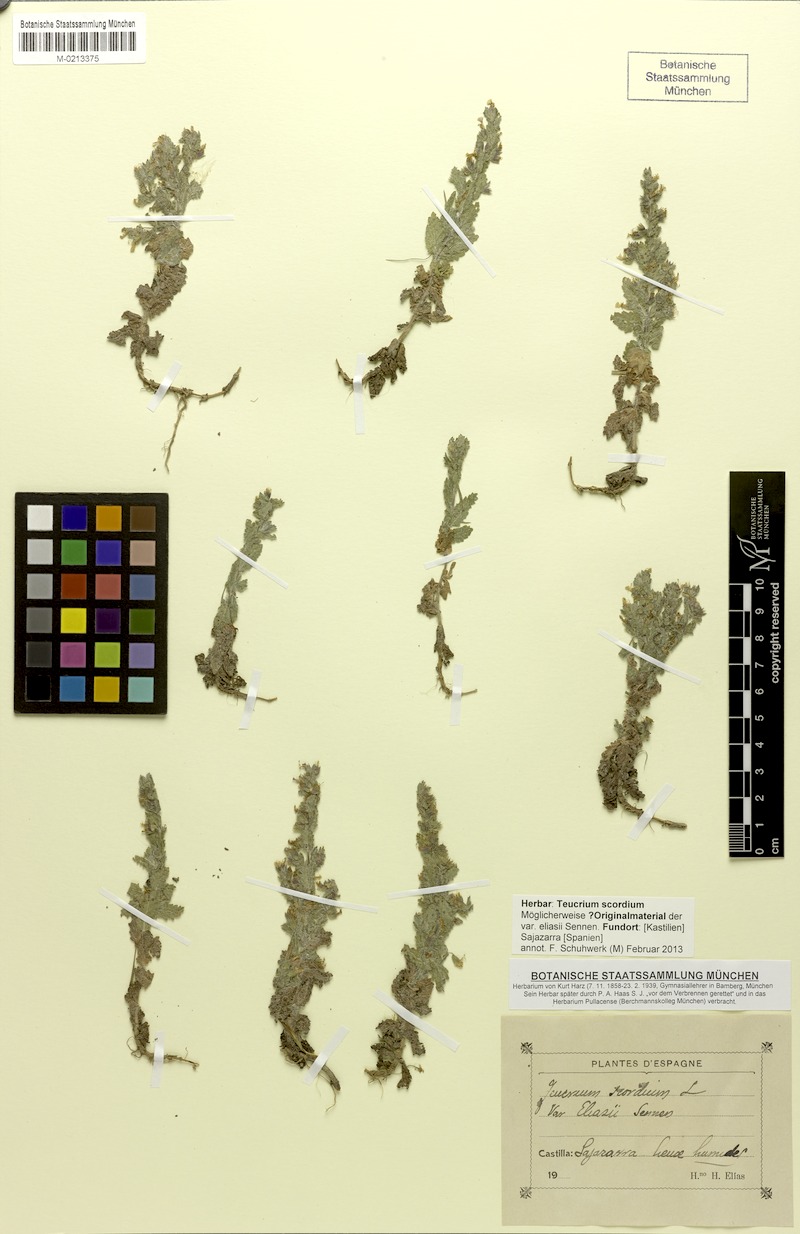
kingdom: Plantae
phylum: Tracheophyta
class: Magnoliopsida
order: Lamiales
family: Lamiaceae
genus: Teucrium
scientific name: Teucrium scordium
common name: Water germander
